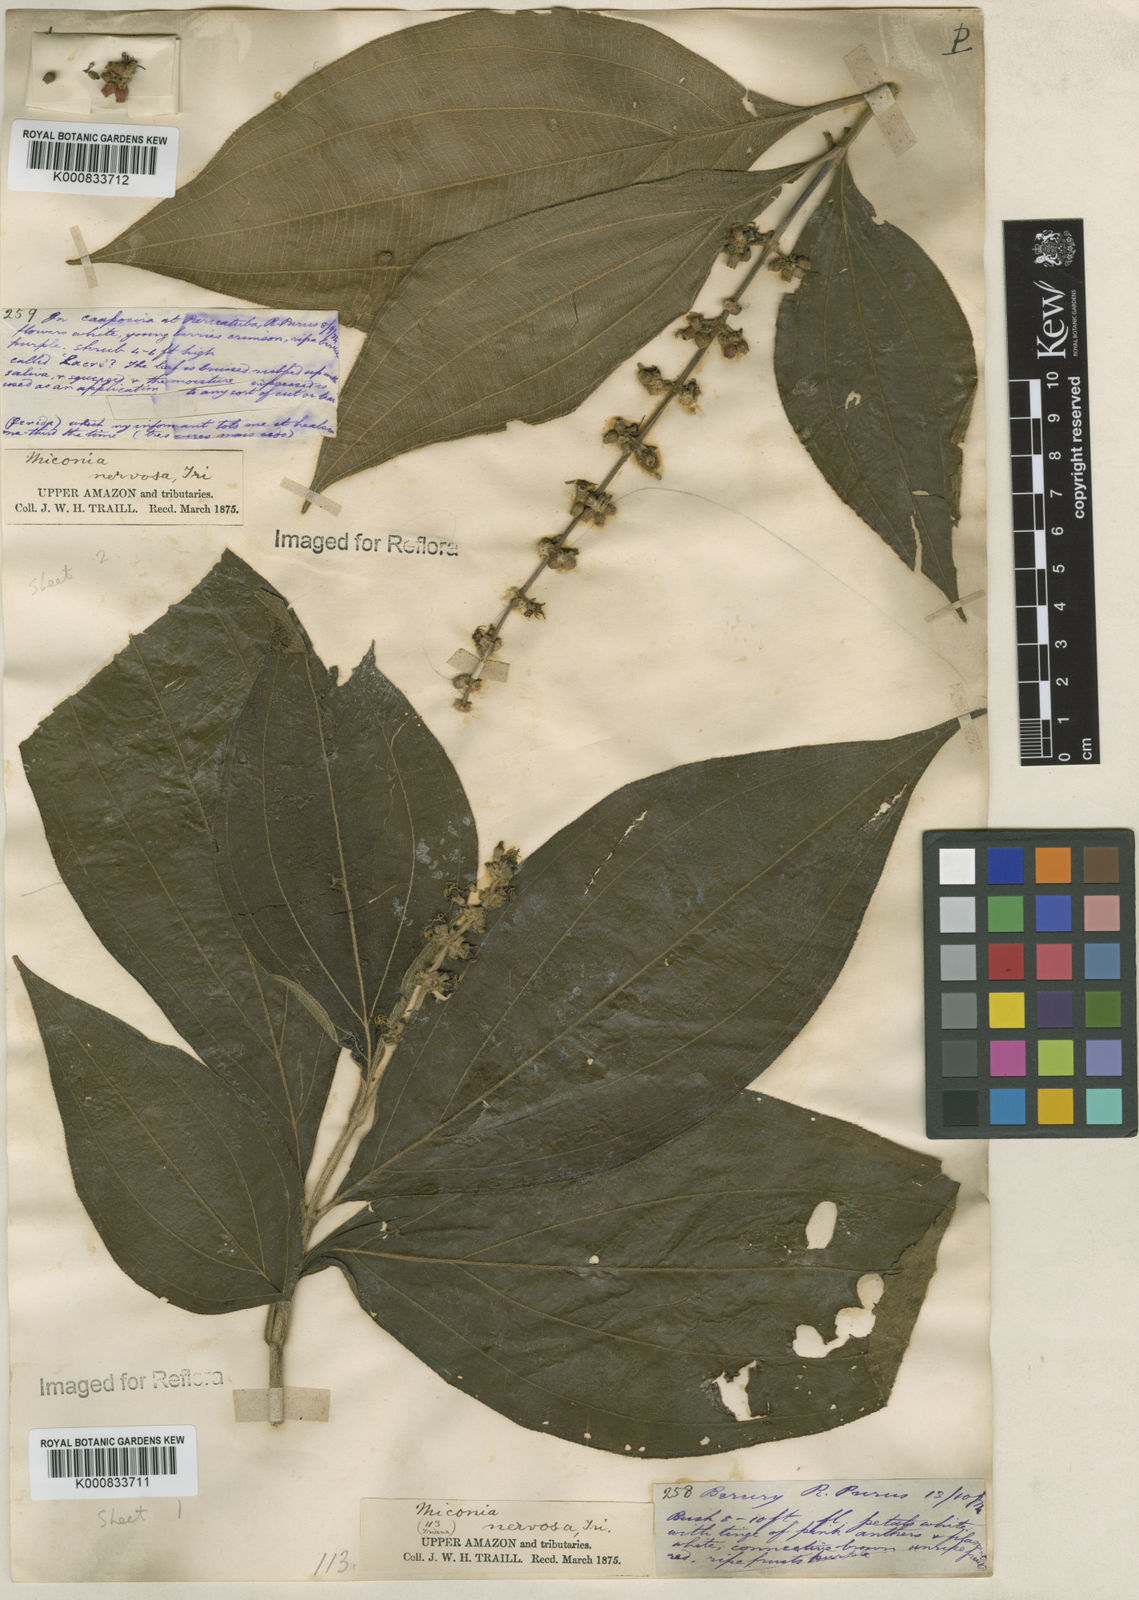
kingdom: Plantae
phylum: Tracheophyta
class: Magnoliopsida
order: Myrtales
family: Melastomataceae
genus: Miconia
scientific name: Miconia nervosa
